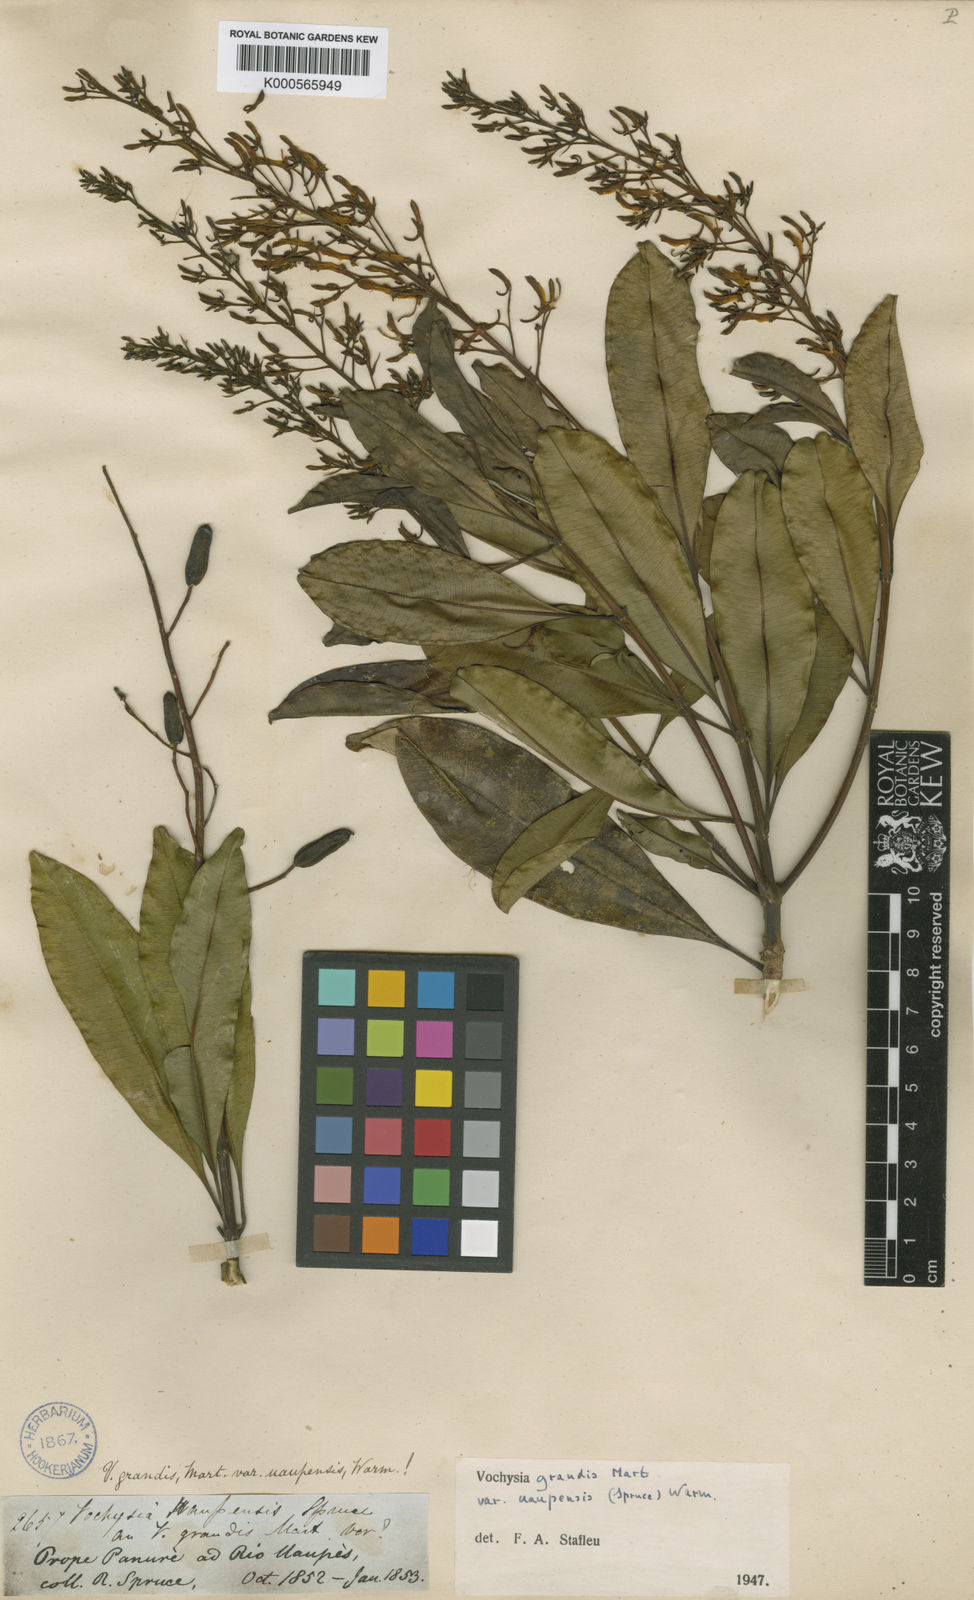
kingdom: Plantae
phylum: Tracheophyta
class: Magnoliopsida
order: Myrtales
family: Vochysiaceae
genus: Vochysia
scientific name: Vochysia grandis
